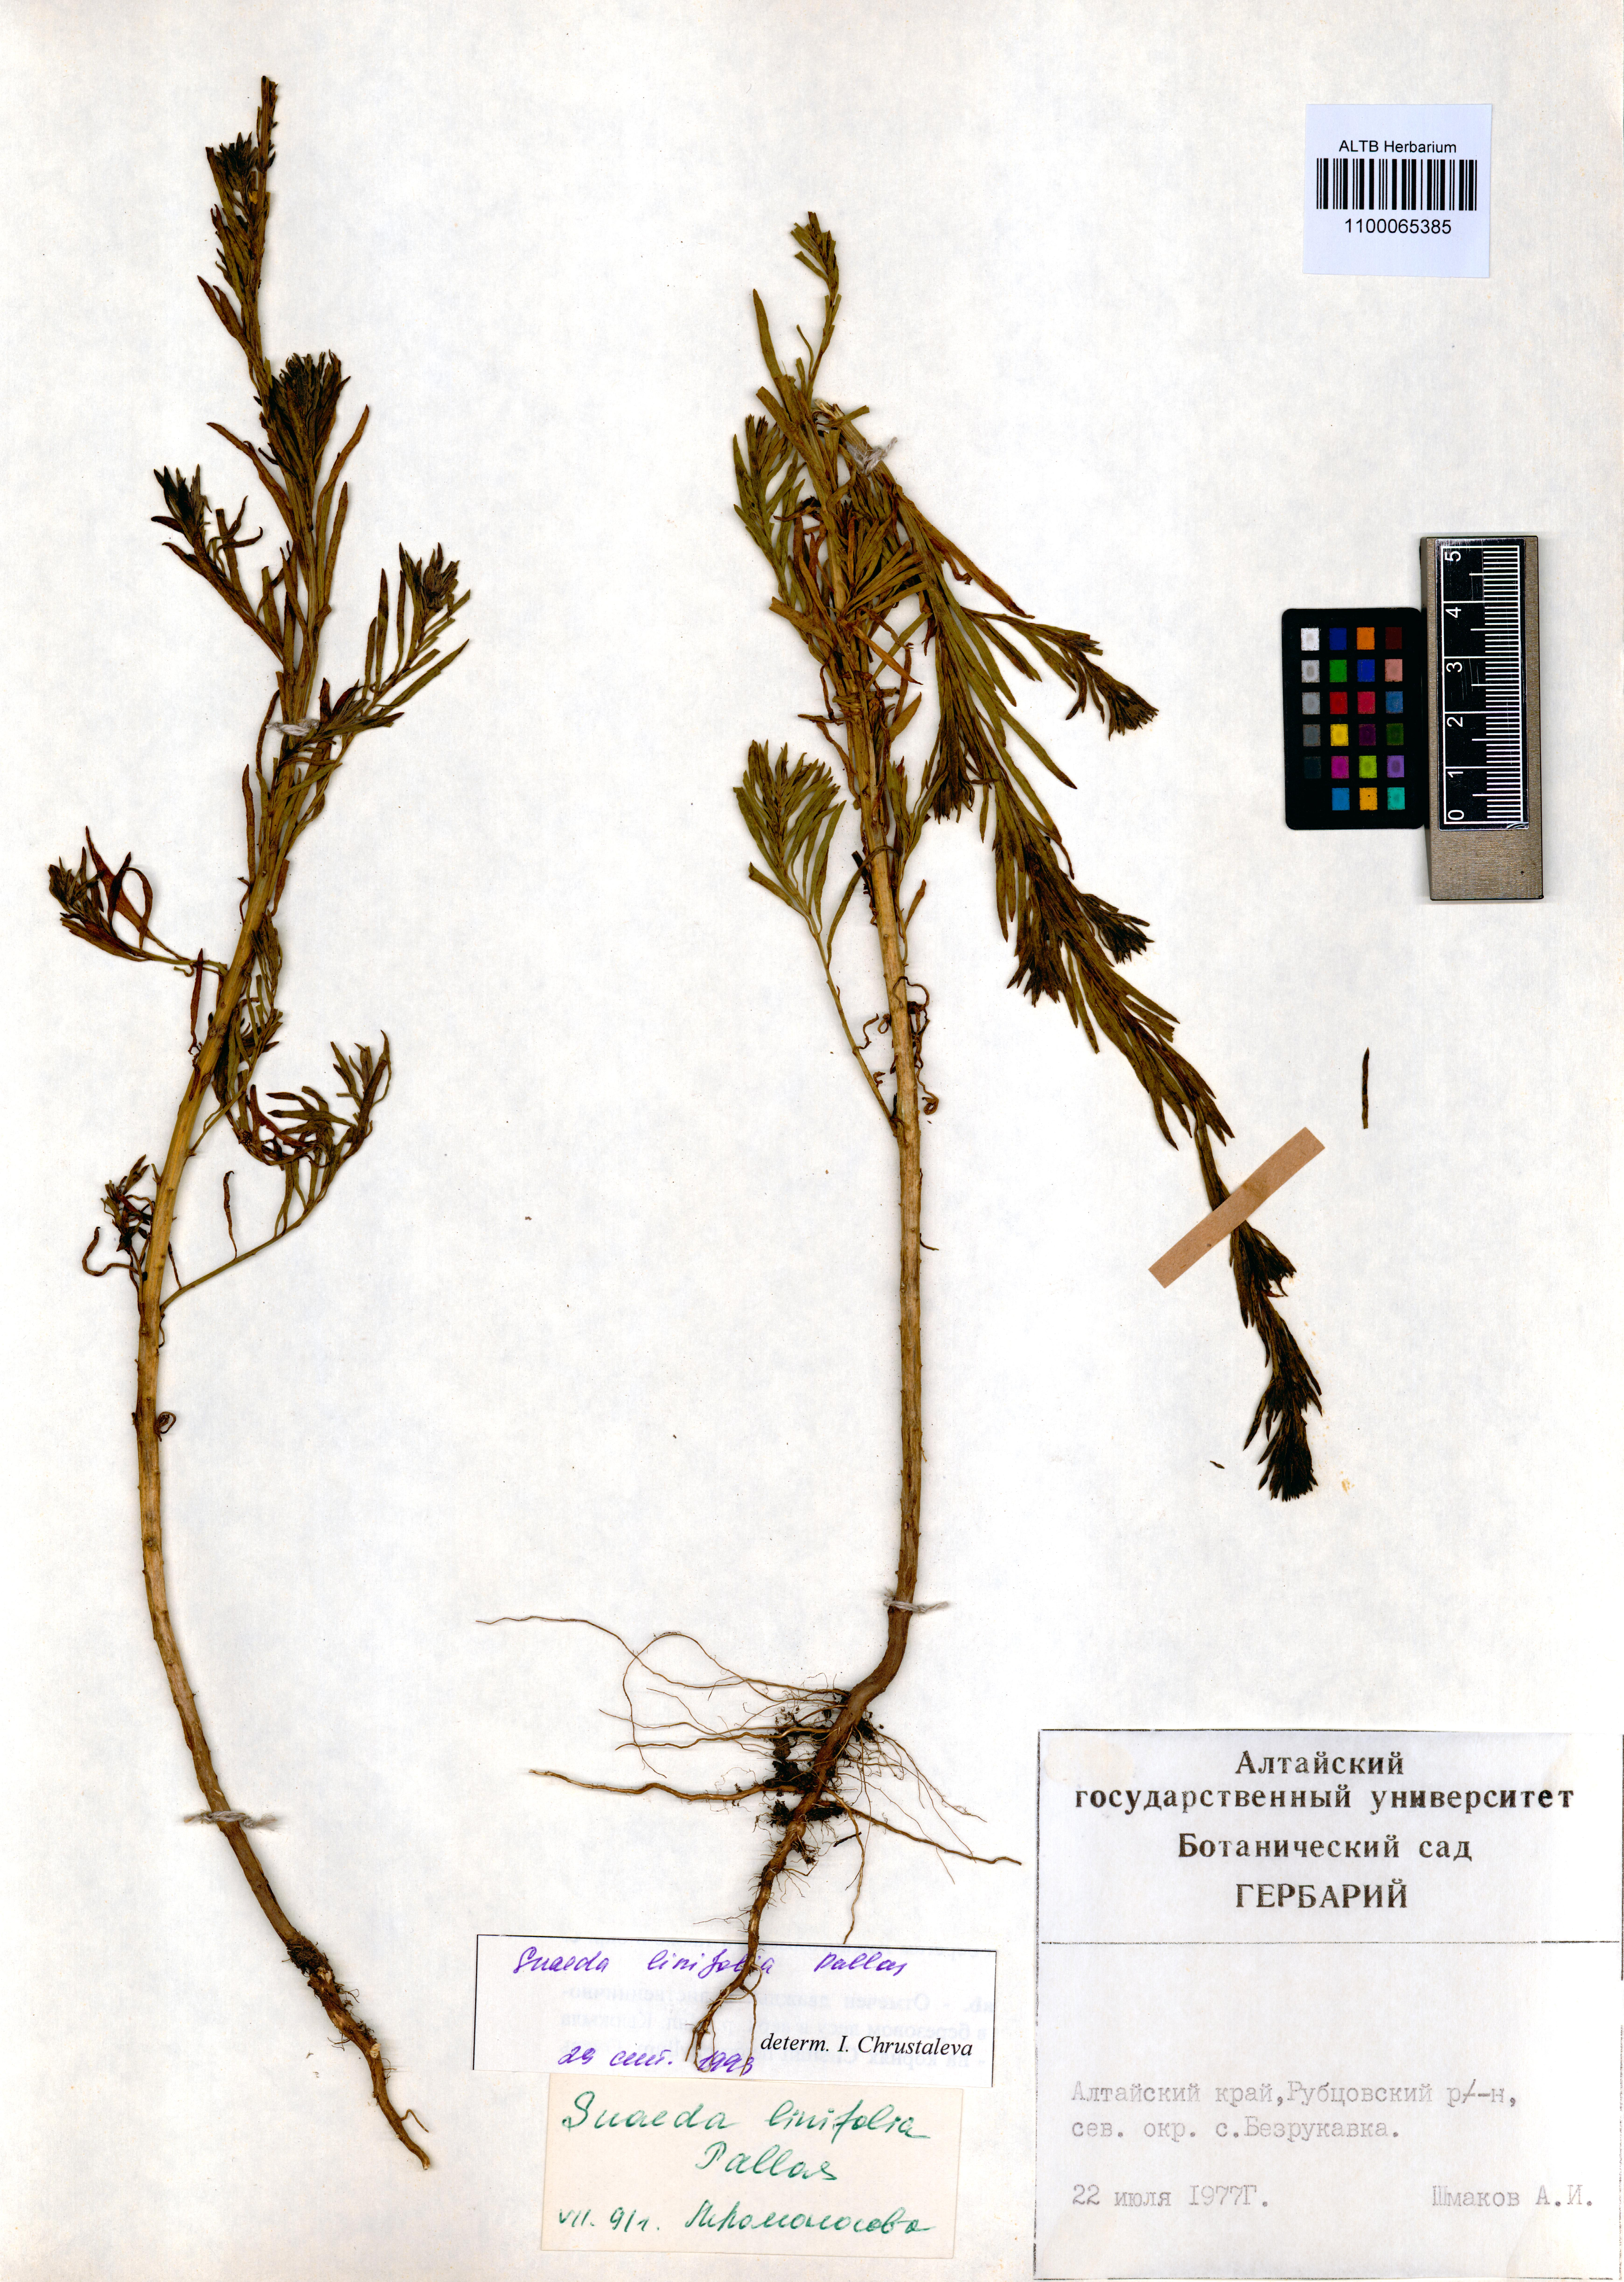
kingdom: Plantae
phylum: Tracheophyta
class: Magnoliopsida
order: Caryophyllales
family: Amaranthaceae
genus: Suaeda
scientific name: Suaeda linifolia
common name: Pin-leaf seepweed
